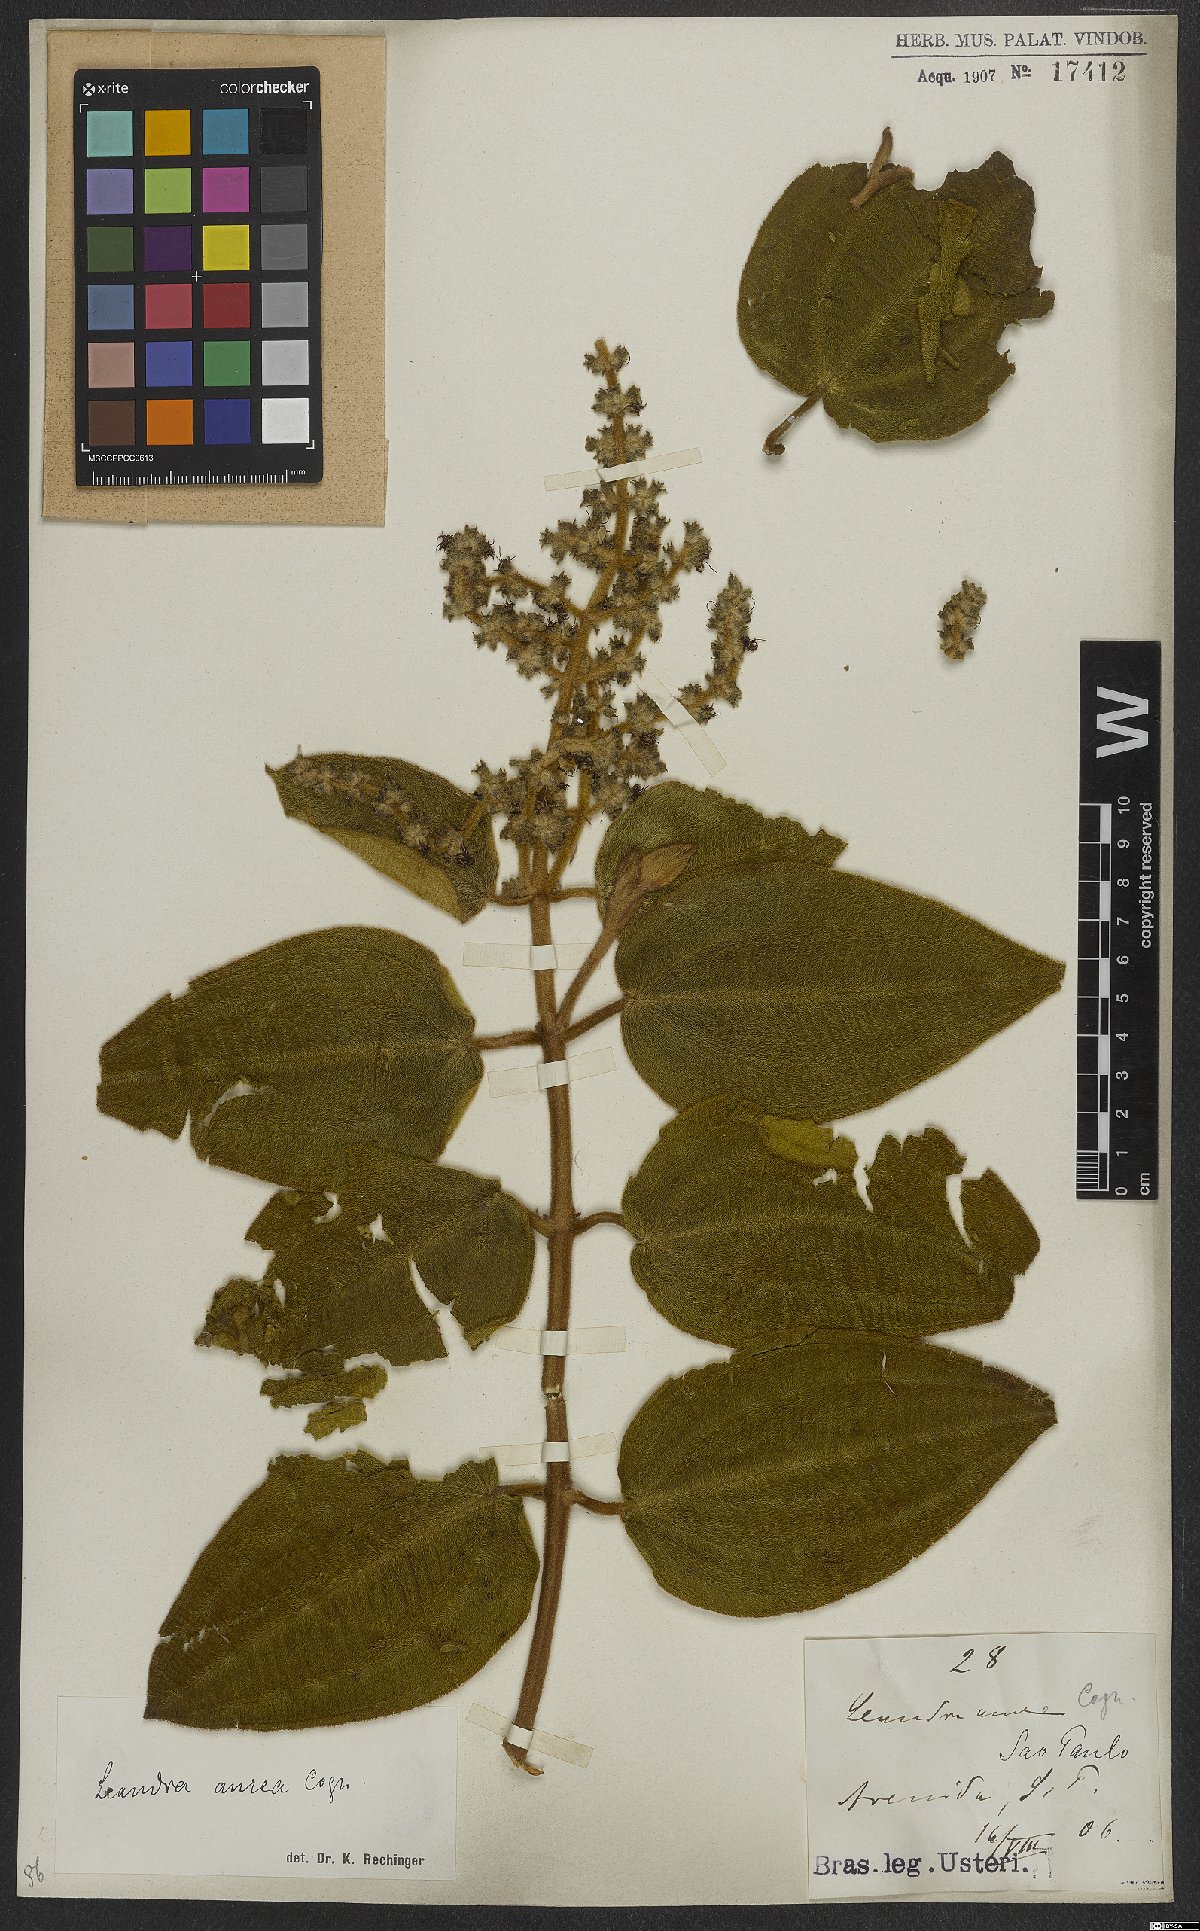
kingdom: Plantae
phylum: Tracheophyta
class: Magnoliopsida
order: Myrtales
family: Melastomataceae
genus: Miconia
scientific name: Miconia auricoma
